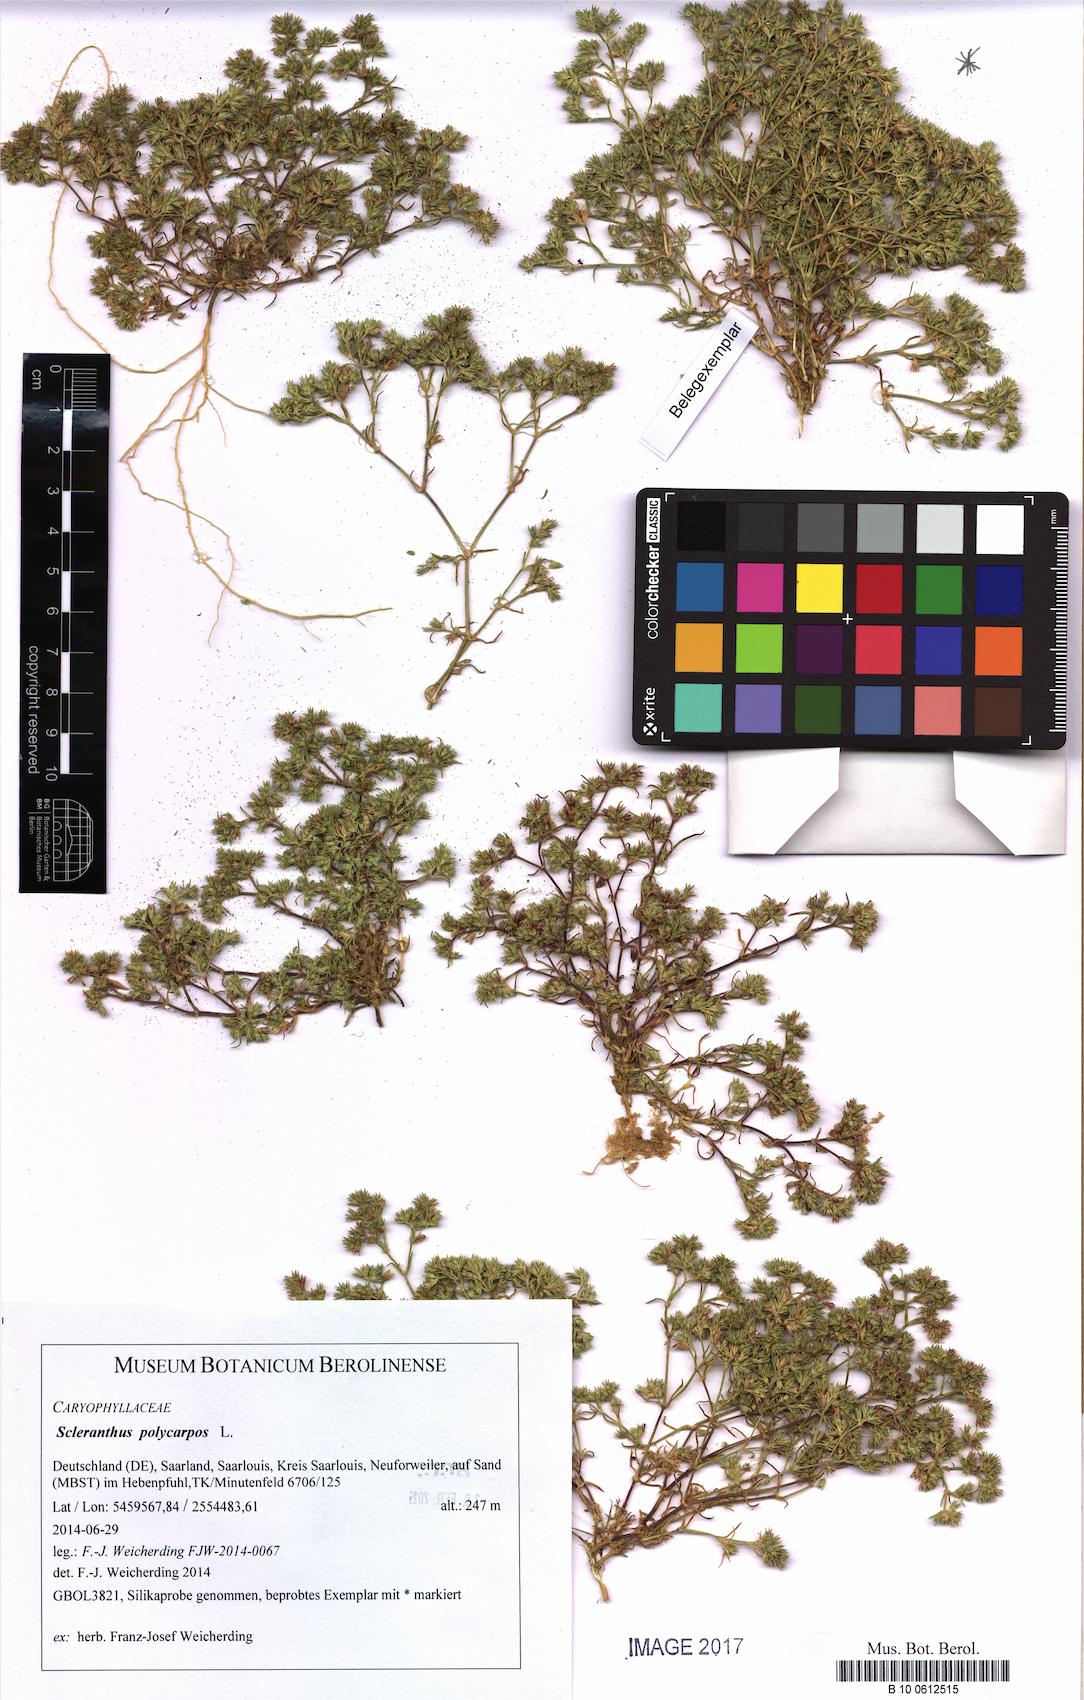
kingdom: Plantae
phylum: Tracheophyta
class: Magnoliopsida
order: Caryophyllales
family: Caryophyllaceae
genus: Scleranthus
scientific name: Scleranthus annuus
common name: Annual knawel
